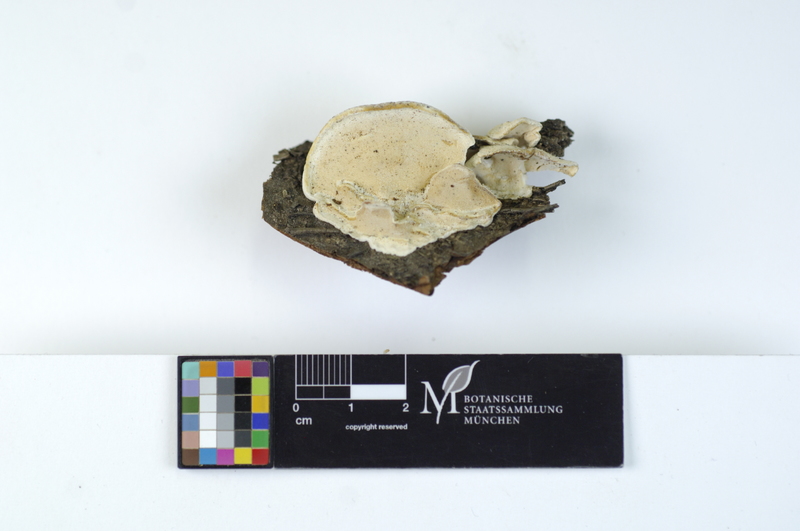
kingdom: Plantae
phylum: Tracheophyta
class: Magnoliopsida
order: Fagales
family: Betulaceae
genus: Corylus
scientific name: Corylus
